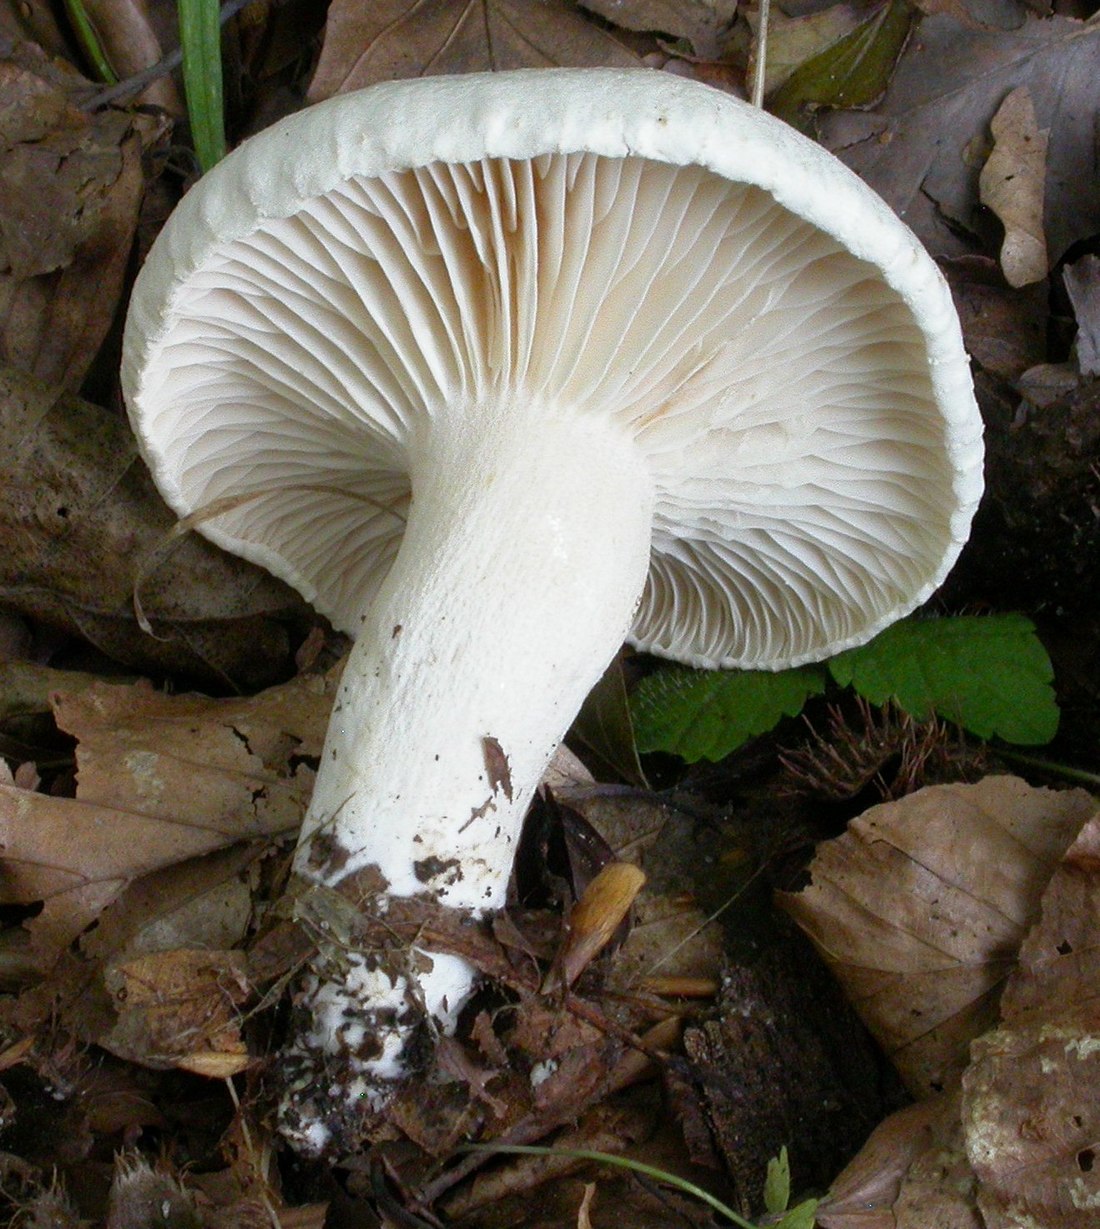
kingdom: Fungi
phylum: Basidiomycota
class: Agaricomycetes
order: Agaricales
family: Hygrophoraceae
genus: Hygrophorus
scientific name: Hygrophorus penarius
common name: spiselig sneglehat
